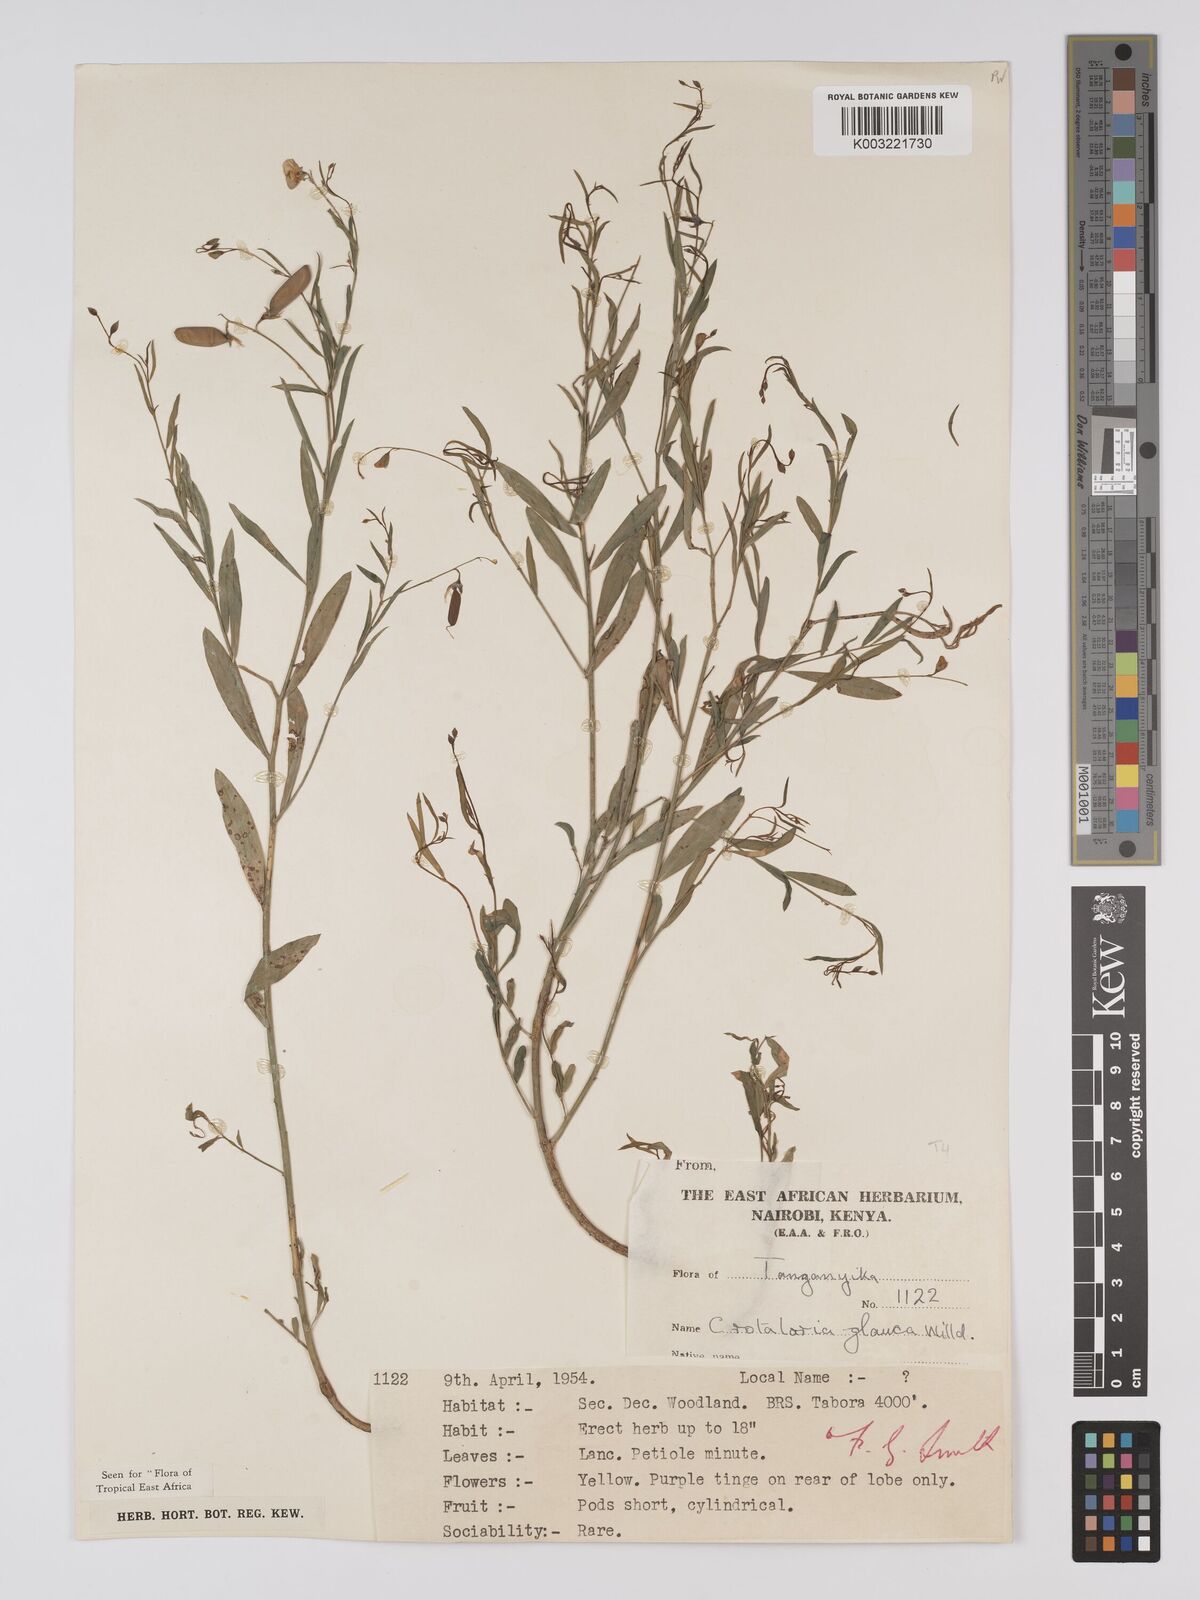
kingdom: Plantae
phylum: Tracheophyta
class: Magnoliopsida
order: Fabales
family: Fabaceae
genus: Crotalaria
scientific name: Crotalaria glauca
